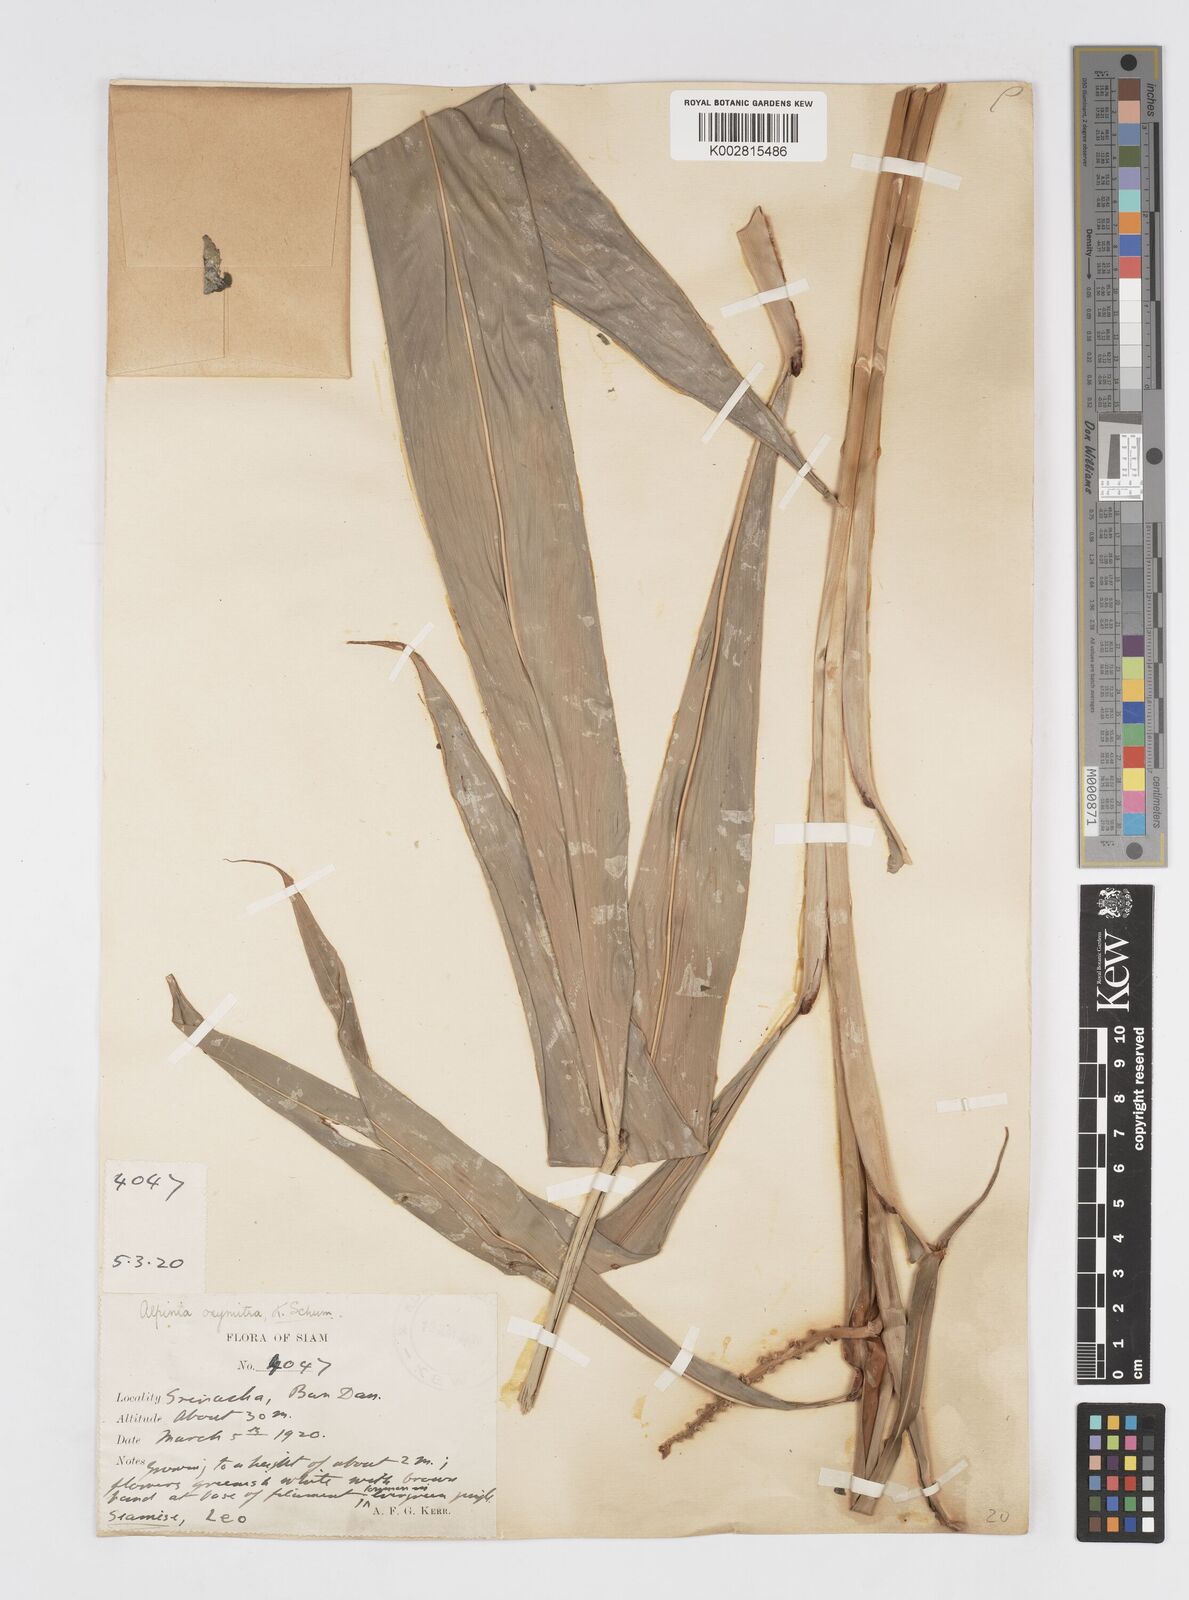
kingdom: Plantae
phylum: Tracheophyta
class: Liliopsida
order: Zingiberales
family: Zingiberaceae
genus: Alpinia
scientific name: Alpinia oxymitra
